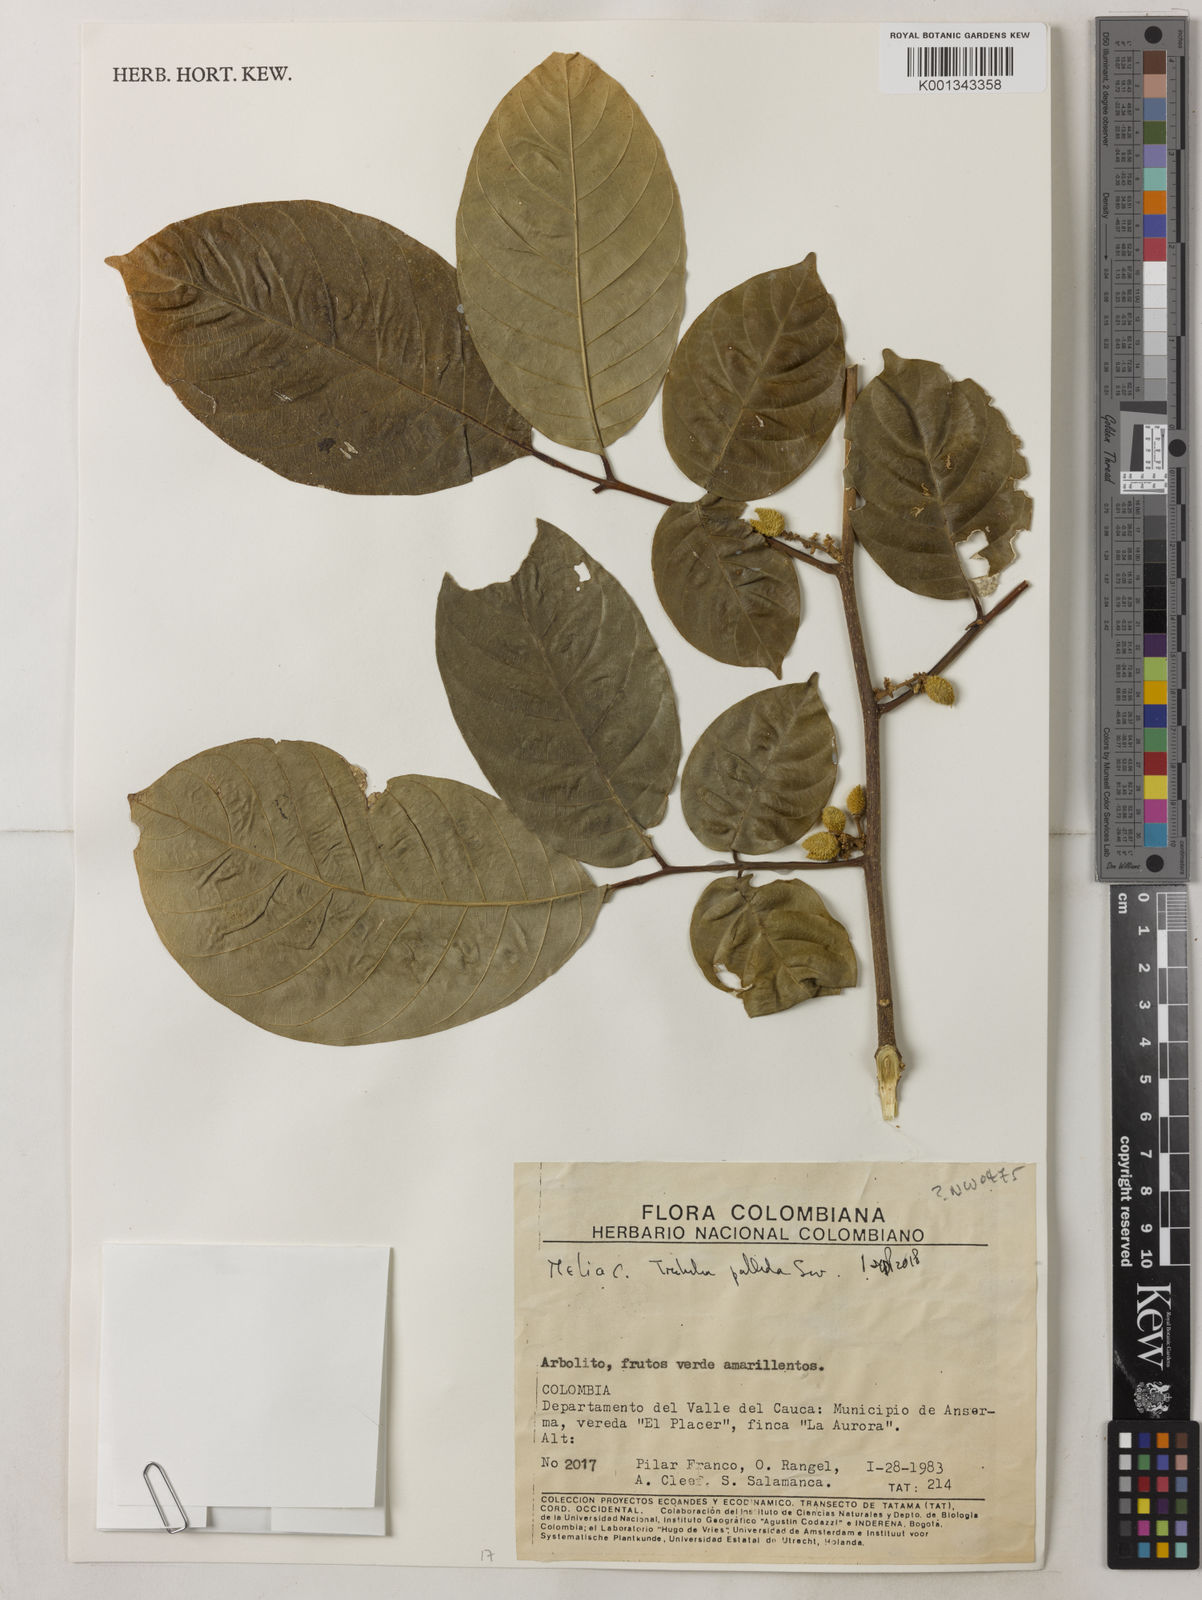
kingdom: Plantae
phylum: Tracheophyta
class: Magnoliopsida
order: Sapindales
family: Meliaceae
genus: Trichilia
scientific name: Trichilia pallida
